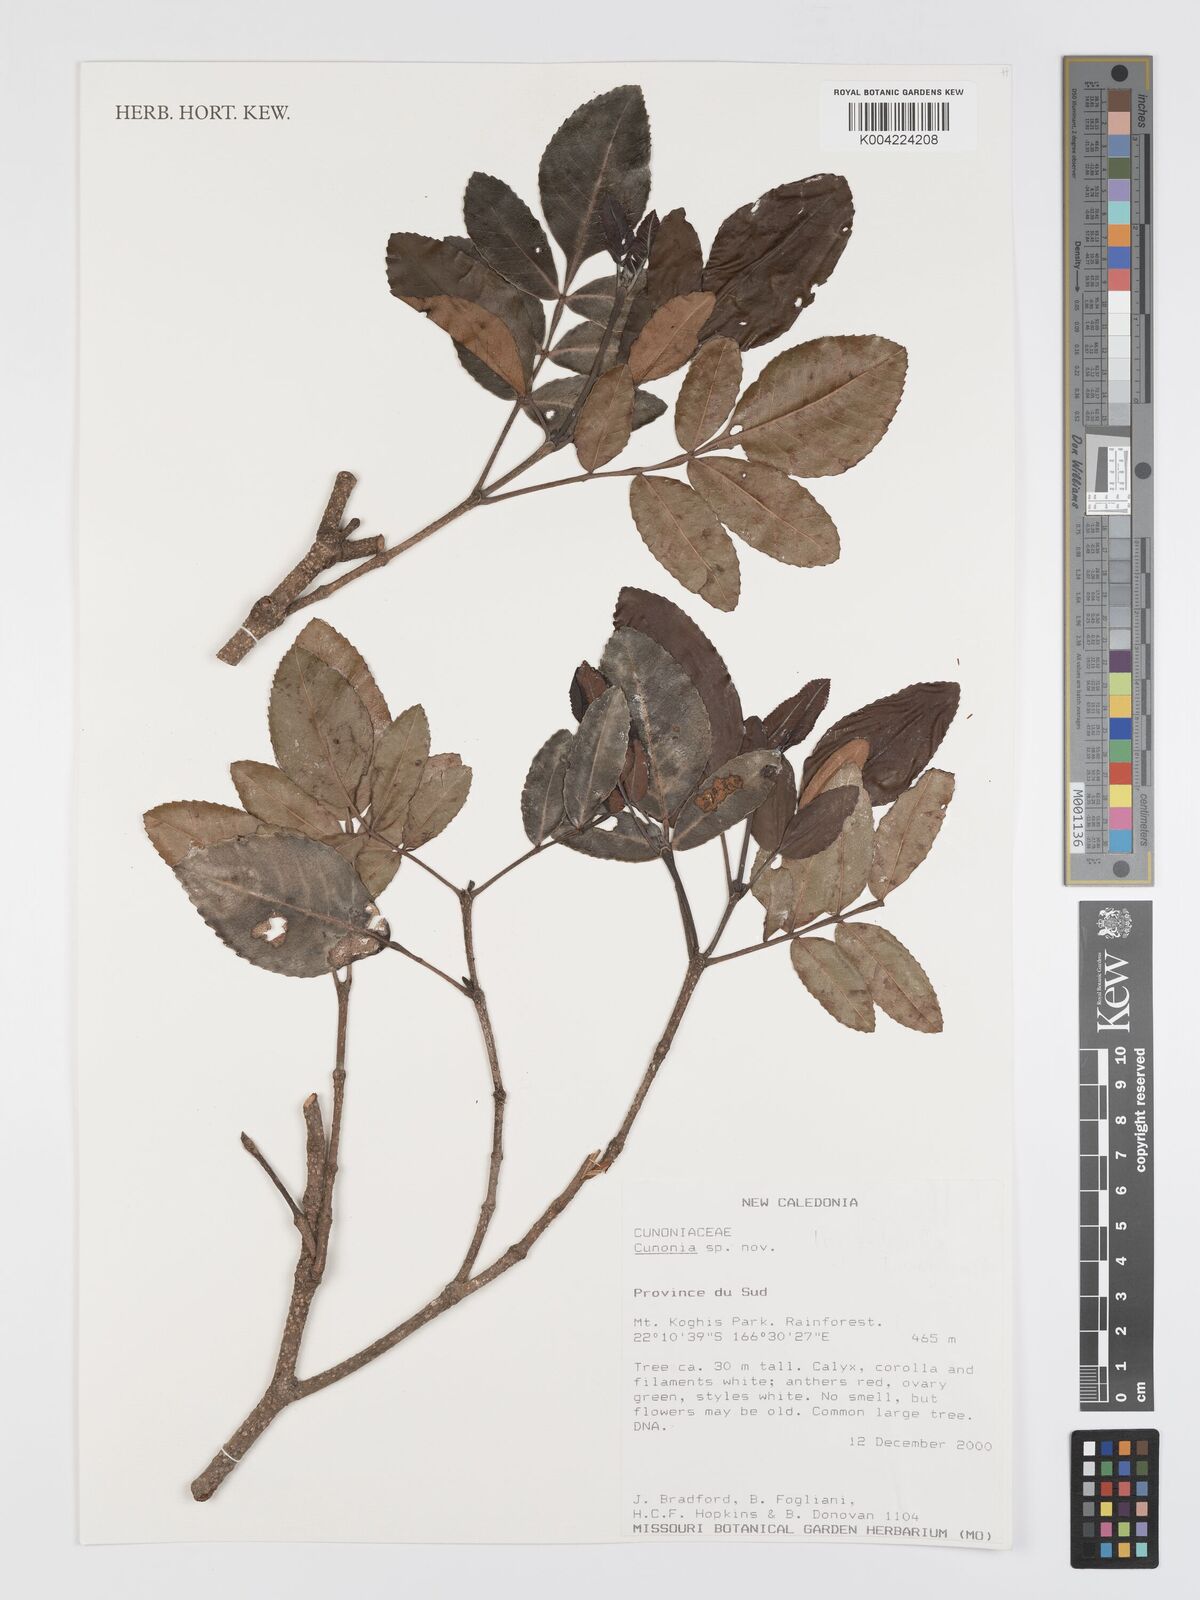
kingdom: Plantae
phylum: Tracheophyta
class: Magnoliopsida
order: Oxalidales
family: Cunoniaceae
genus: Cunonia
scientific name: Cunonia koghicola
